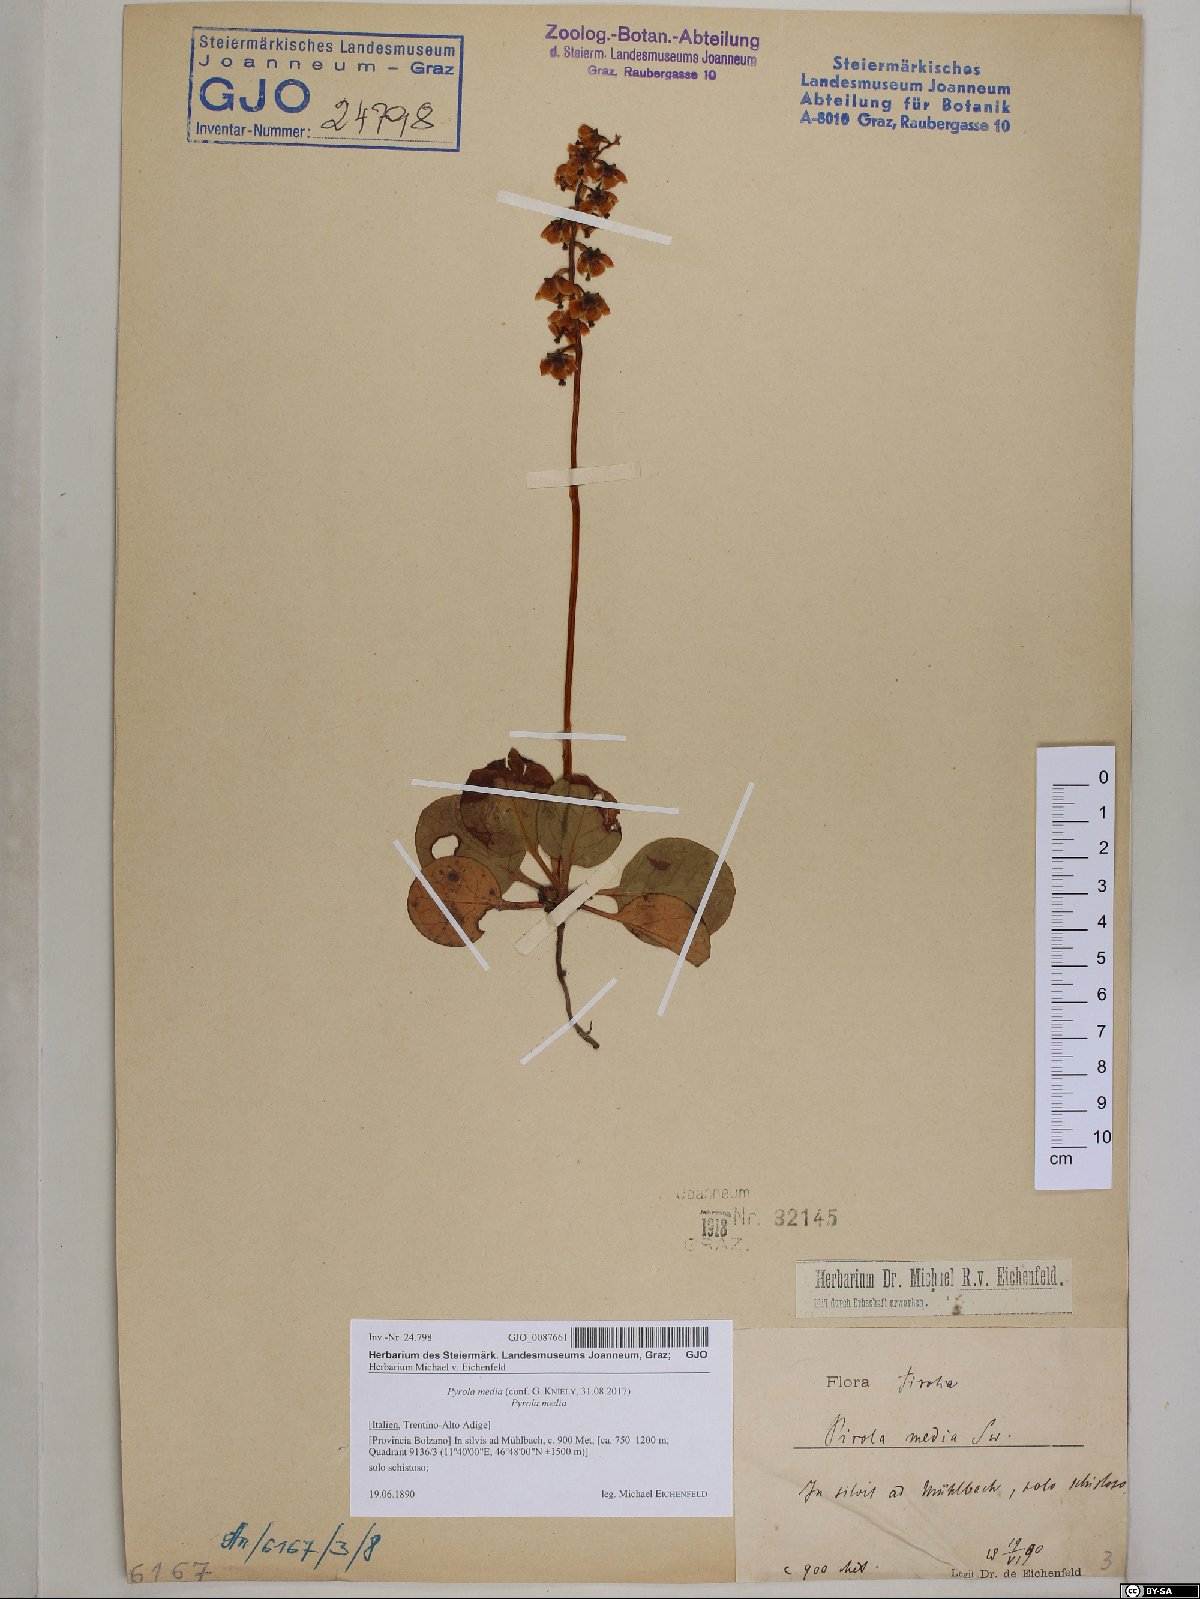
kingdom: Plantae
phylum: Tracheophyta
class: Magnoliopsida
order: Ericales
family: Ericaceae
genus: Pyrola
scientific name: Pyrola media
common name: Intermediate wintergreen
